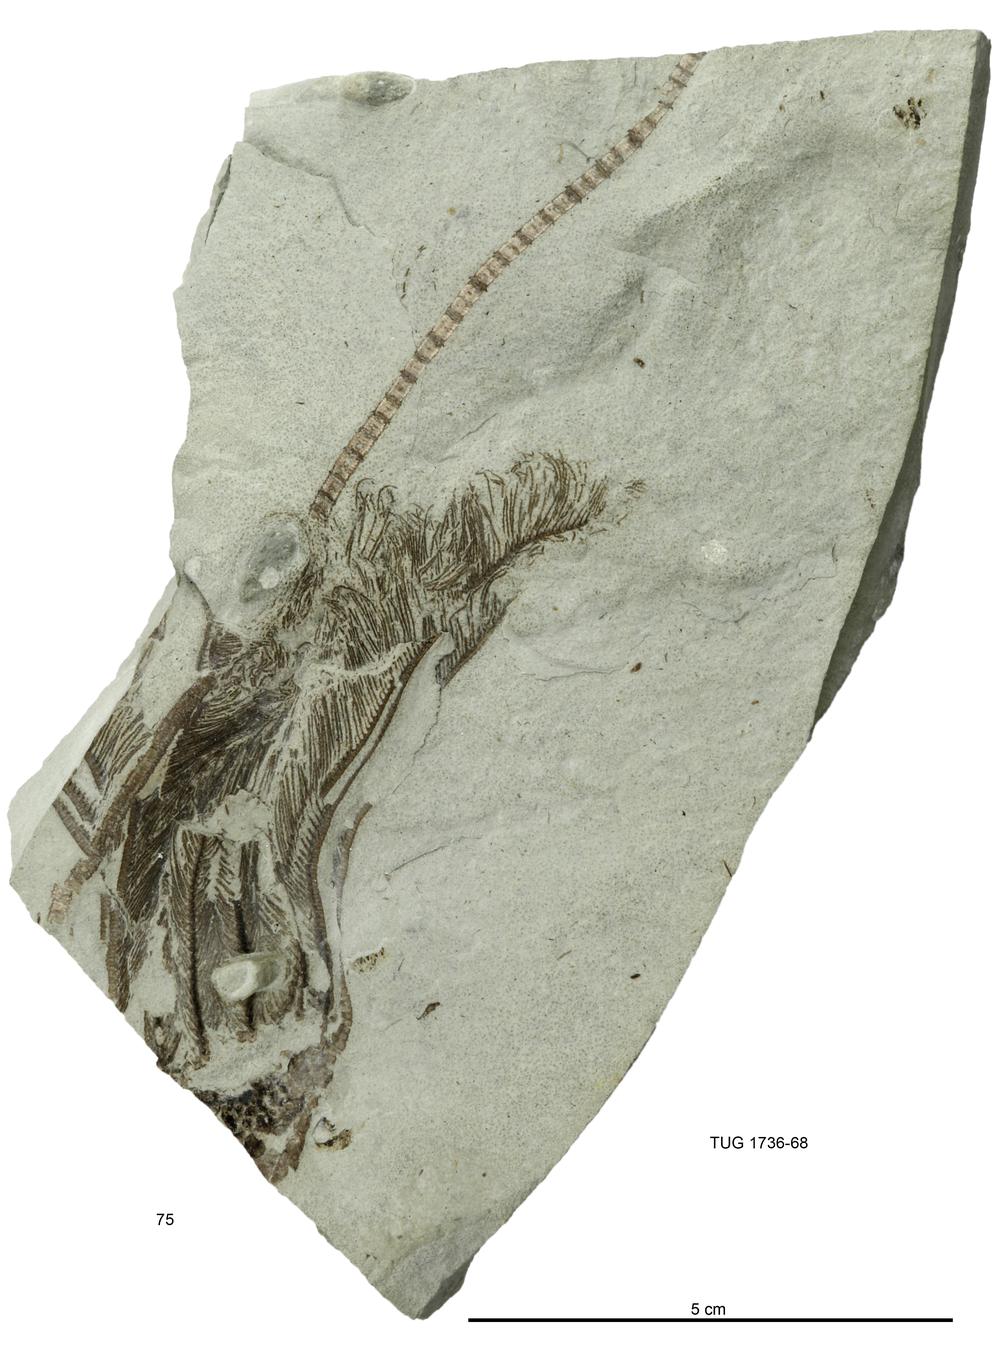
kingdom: Animalia
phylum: Echinodermata
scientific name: Echinodermata
